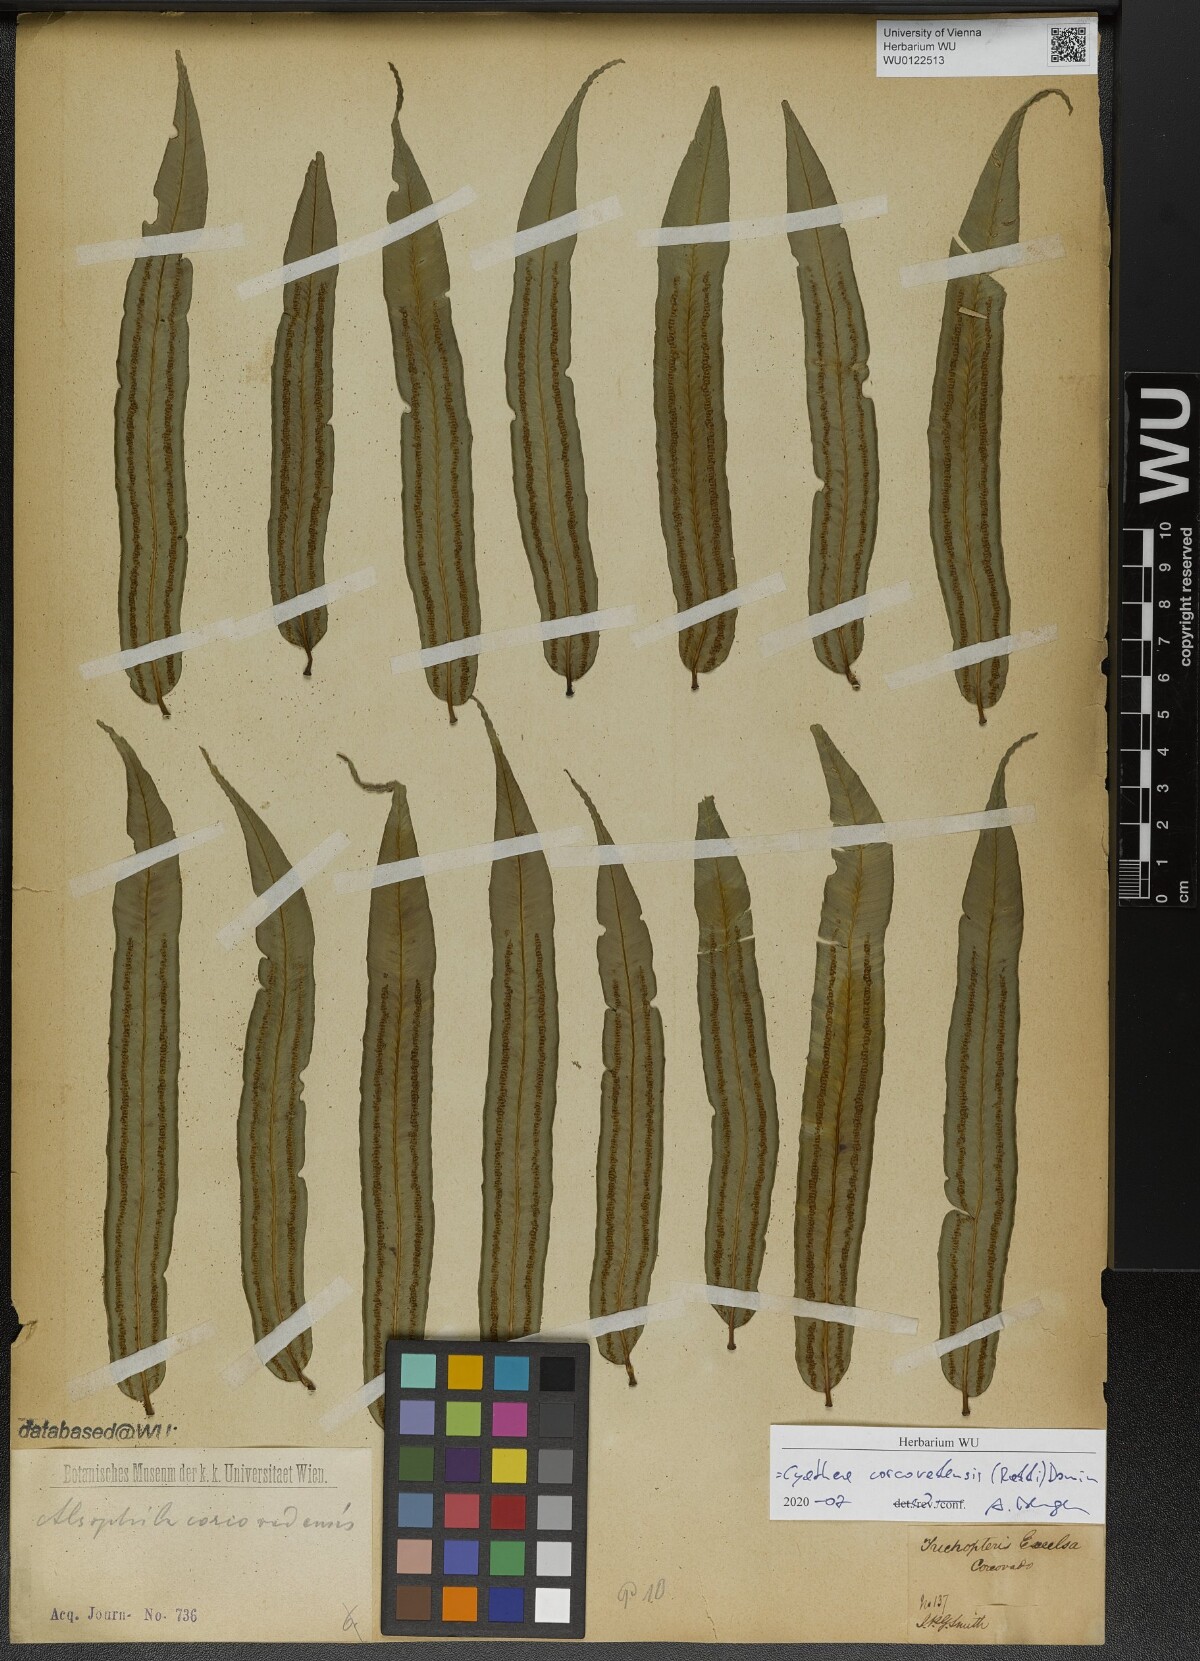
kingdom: Plantae
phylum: Tracheophyta
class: Polypodiopsida
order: Cyatheales
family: Cyatheaceae
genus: Cyathea
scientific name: Cyathea corcovadensis
